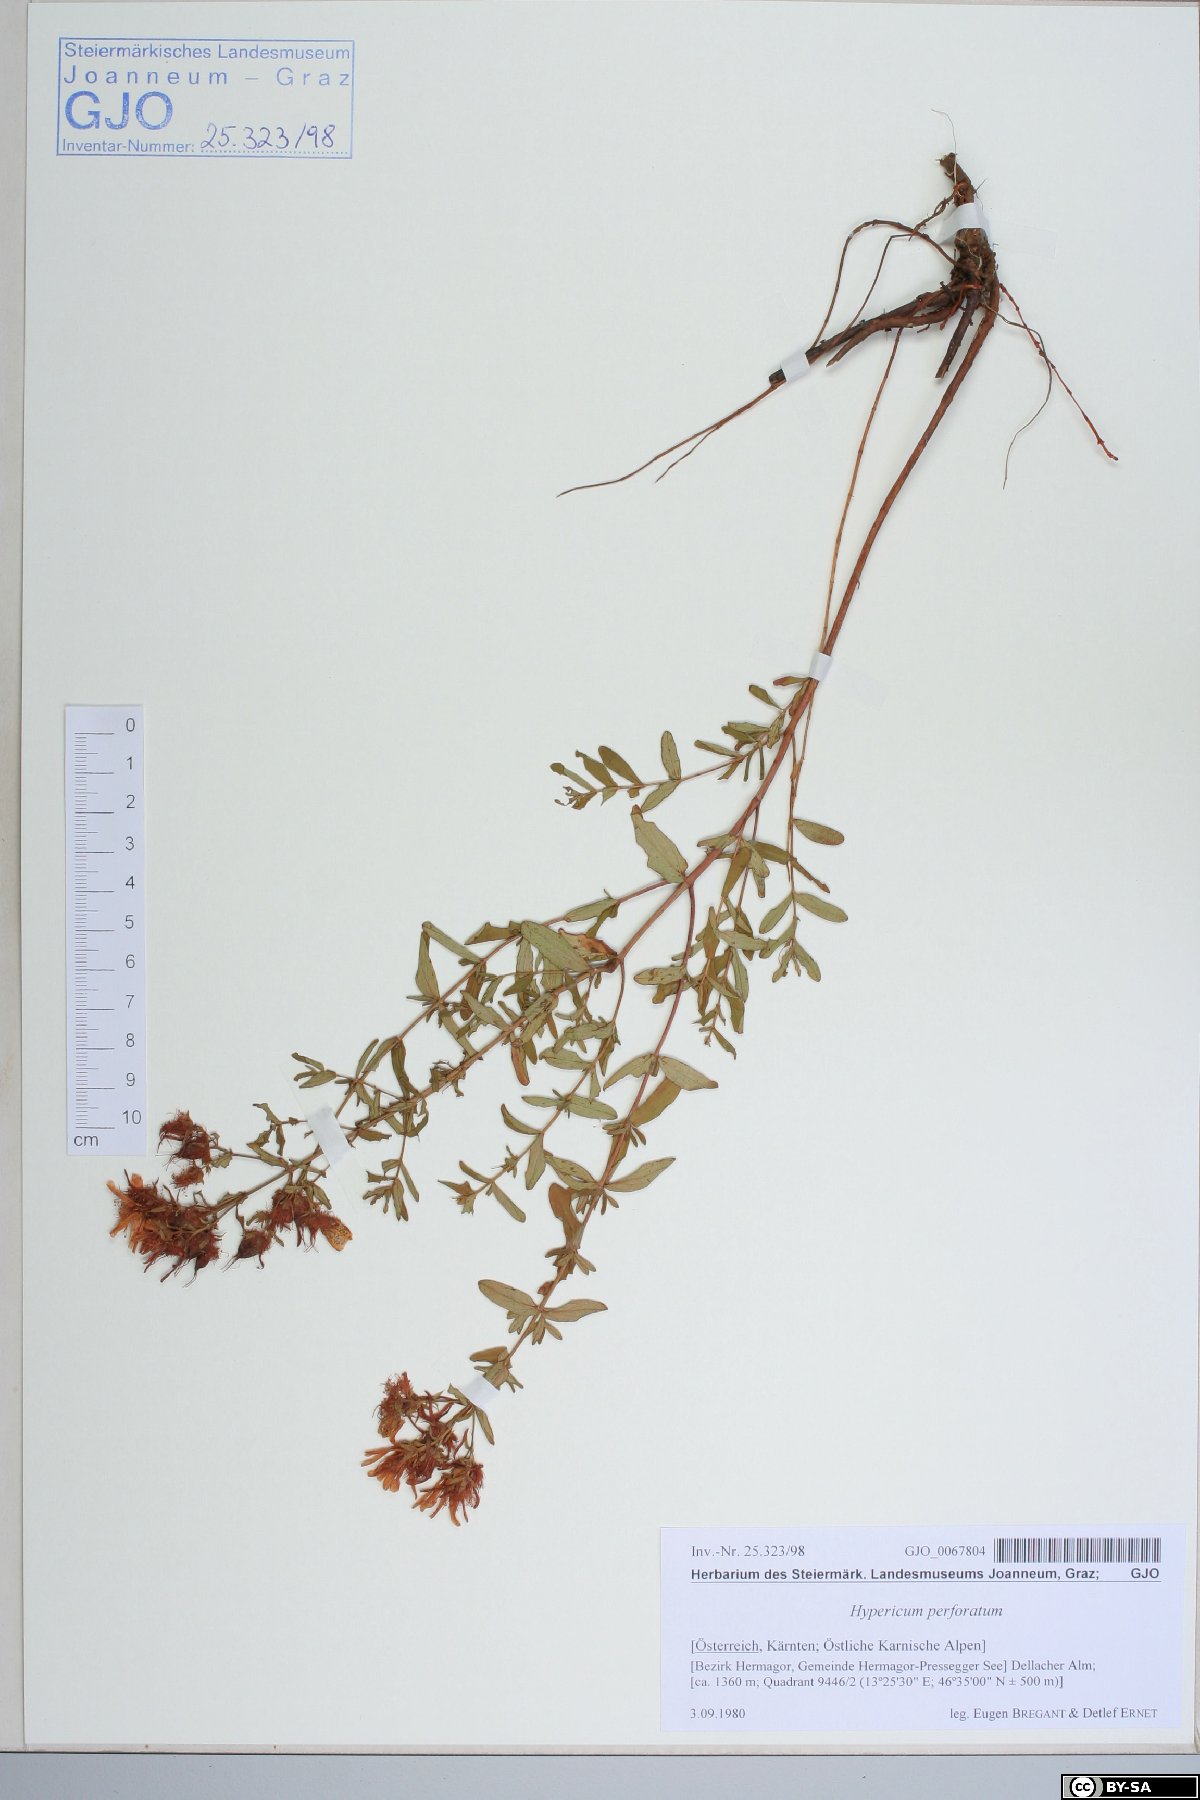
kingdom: Plantae
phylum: Tracheophyta
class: Magnoliopsida
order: Malpighiales
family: Hypericaceae
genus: Hypericum
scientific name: Hypericum perforatum
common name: Common st. johnswort
